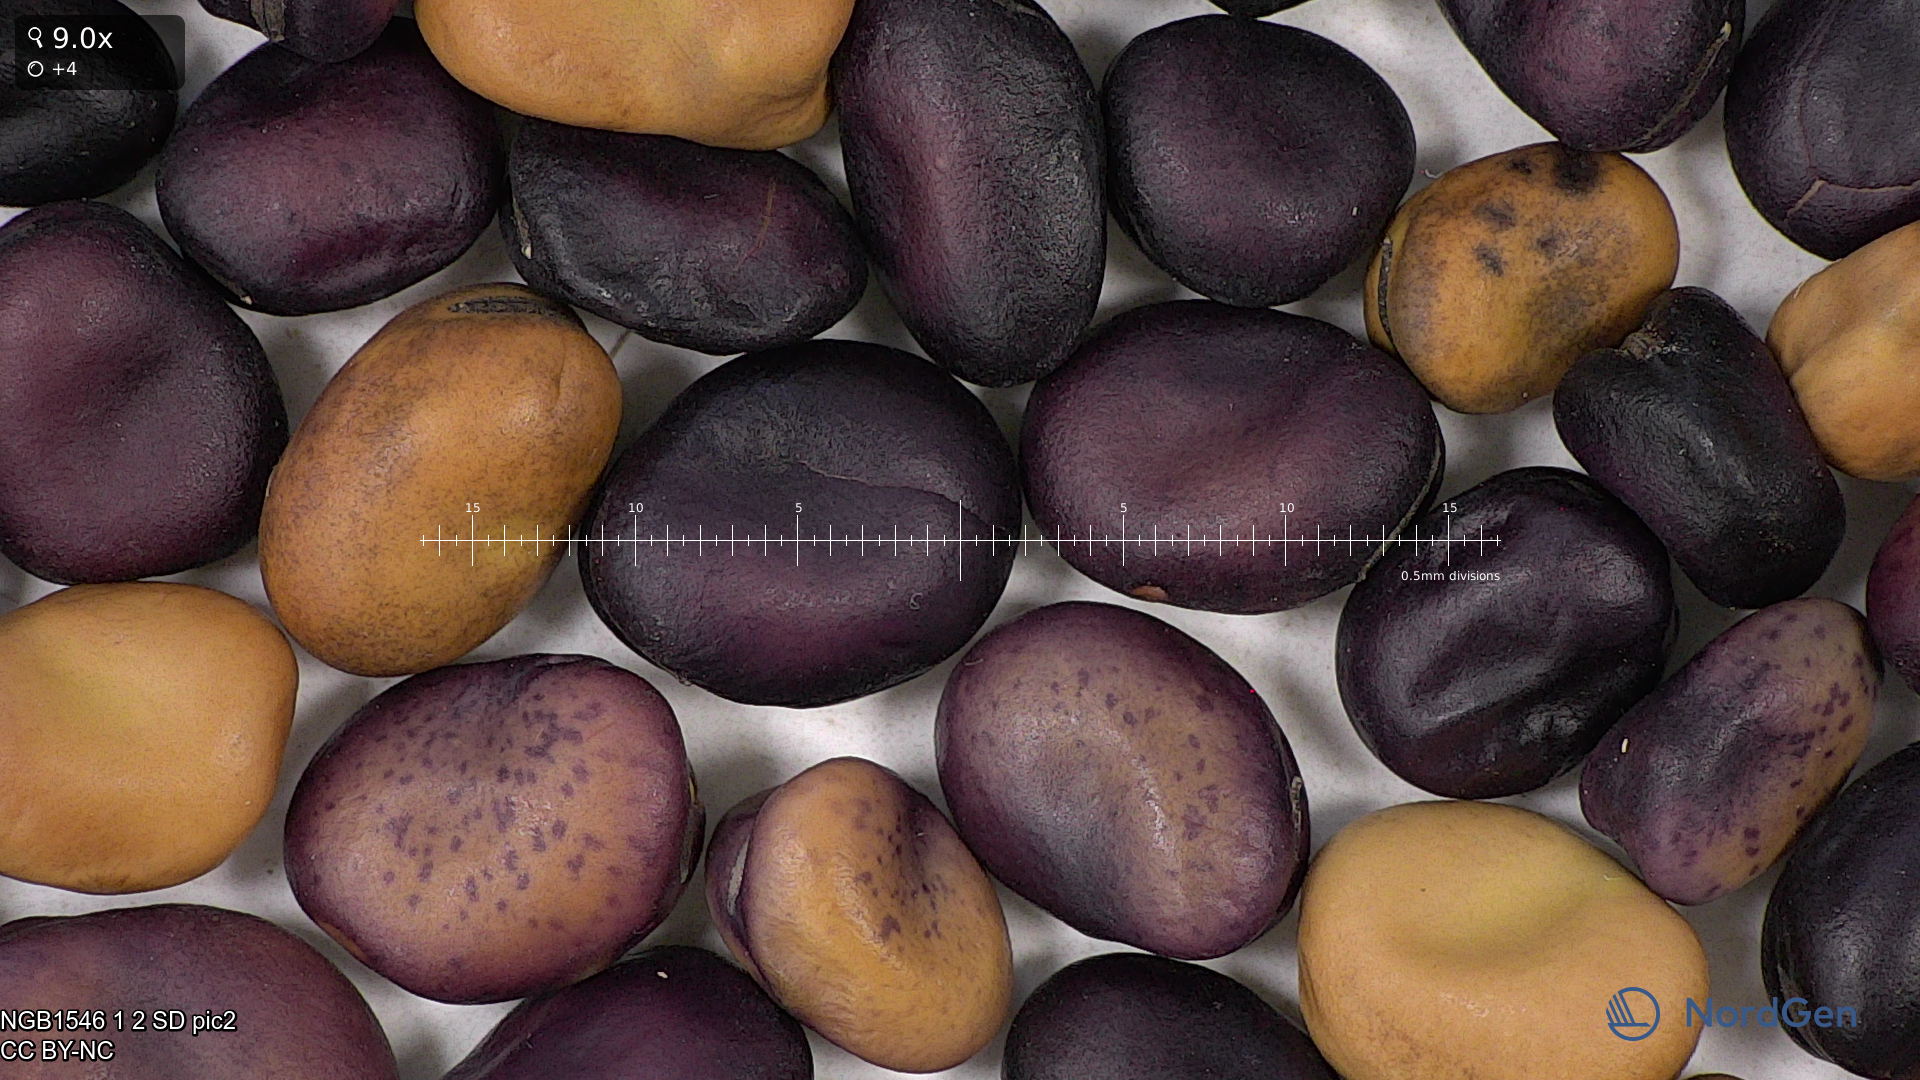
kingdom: Plantae
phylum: Tracheophyta
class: Magnoliopsida
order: Fabales
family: Fabaceae
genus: Vicia
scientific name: Vicia faba
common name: Broad bean
